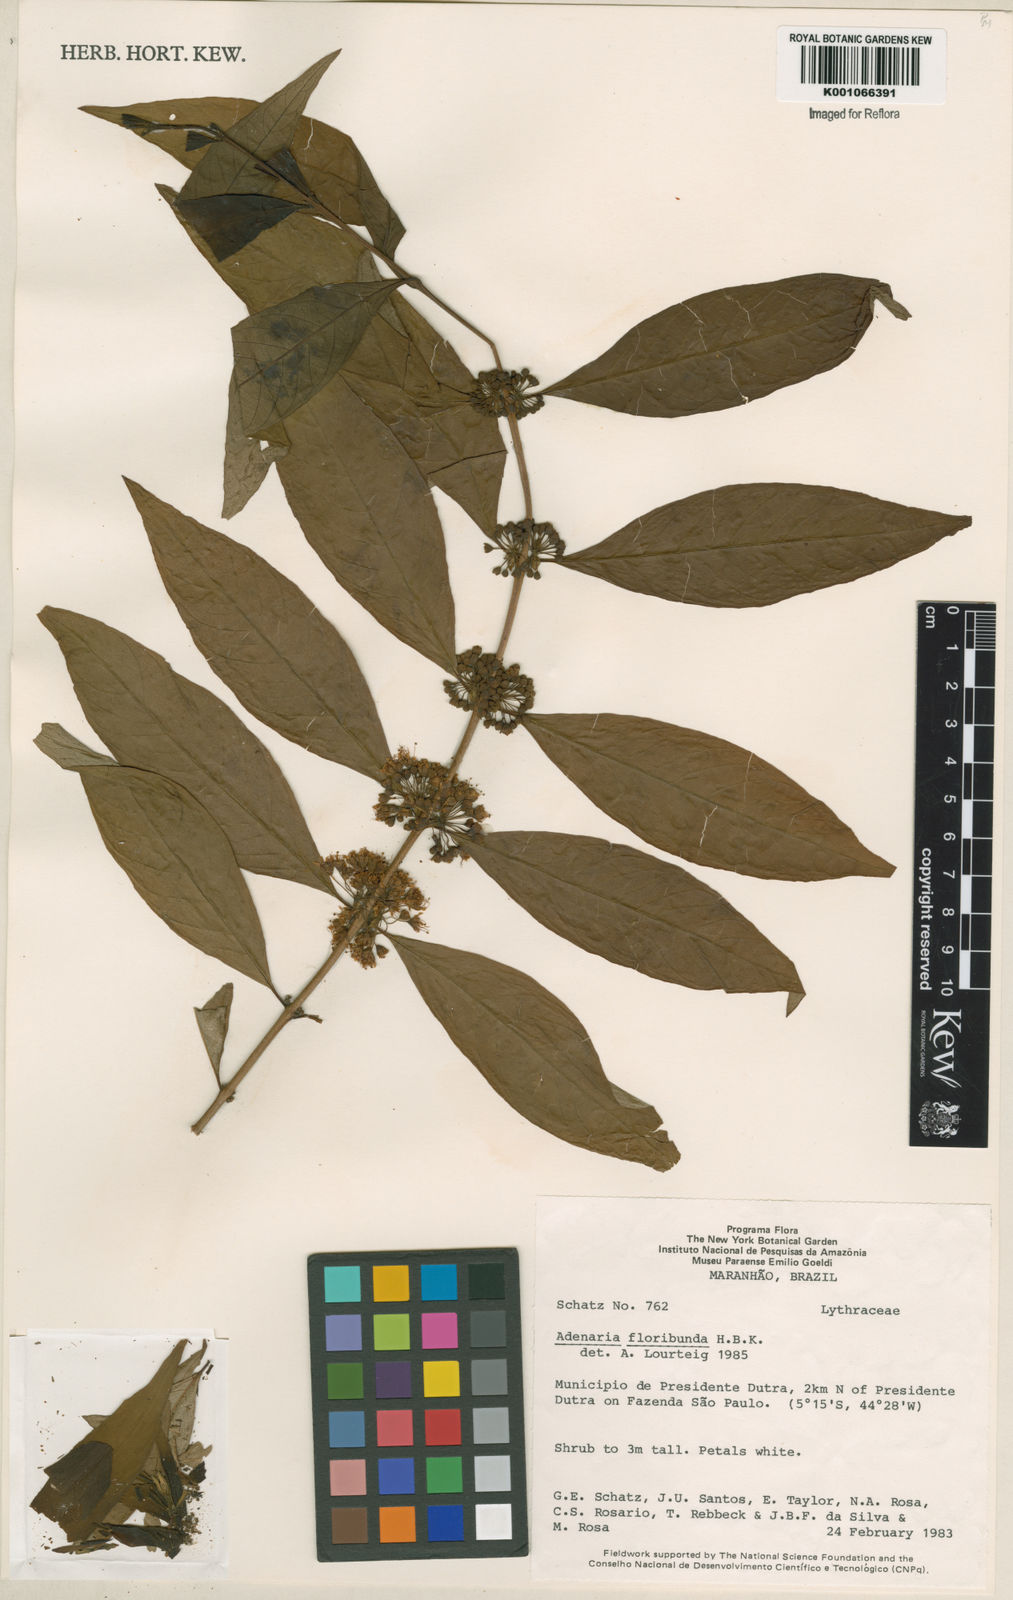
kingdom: Plantae
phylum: Tracheophyta
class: Magnoliopsida
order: Myrtales
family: Lythraceae
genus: Adenaria
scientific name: Adenaria floribunda
